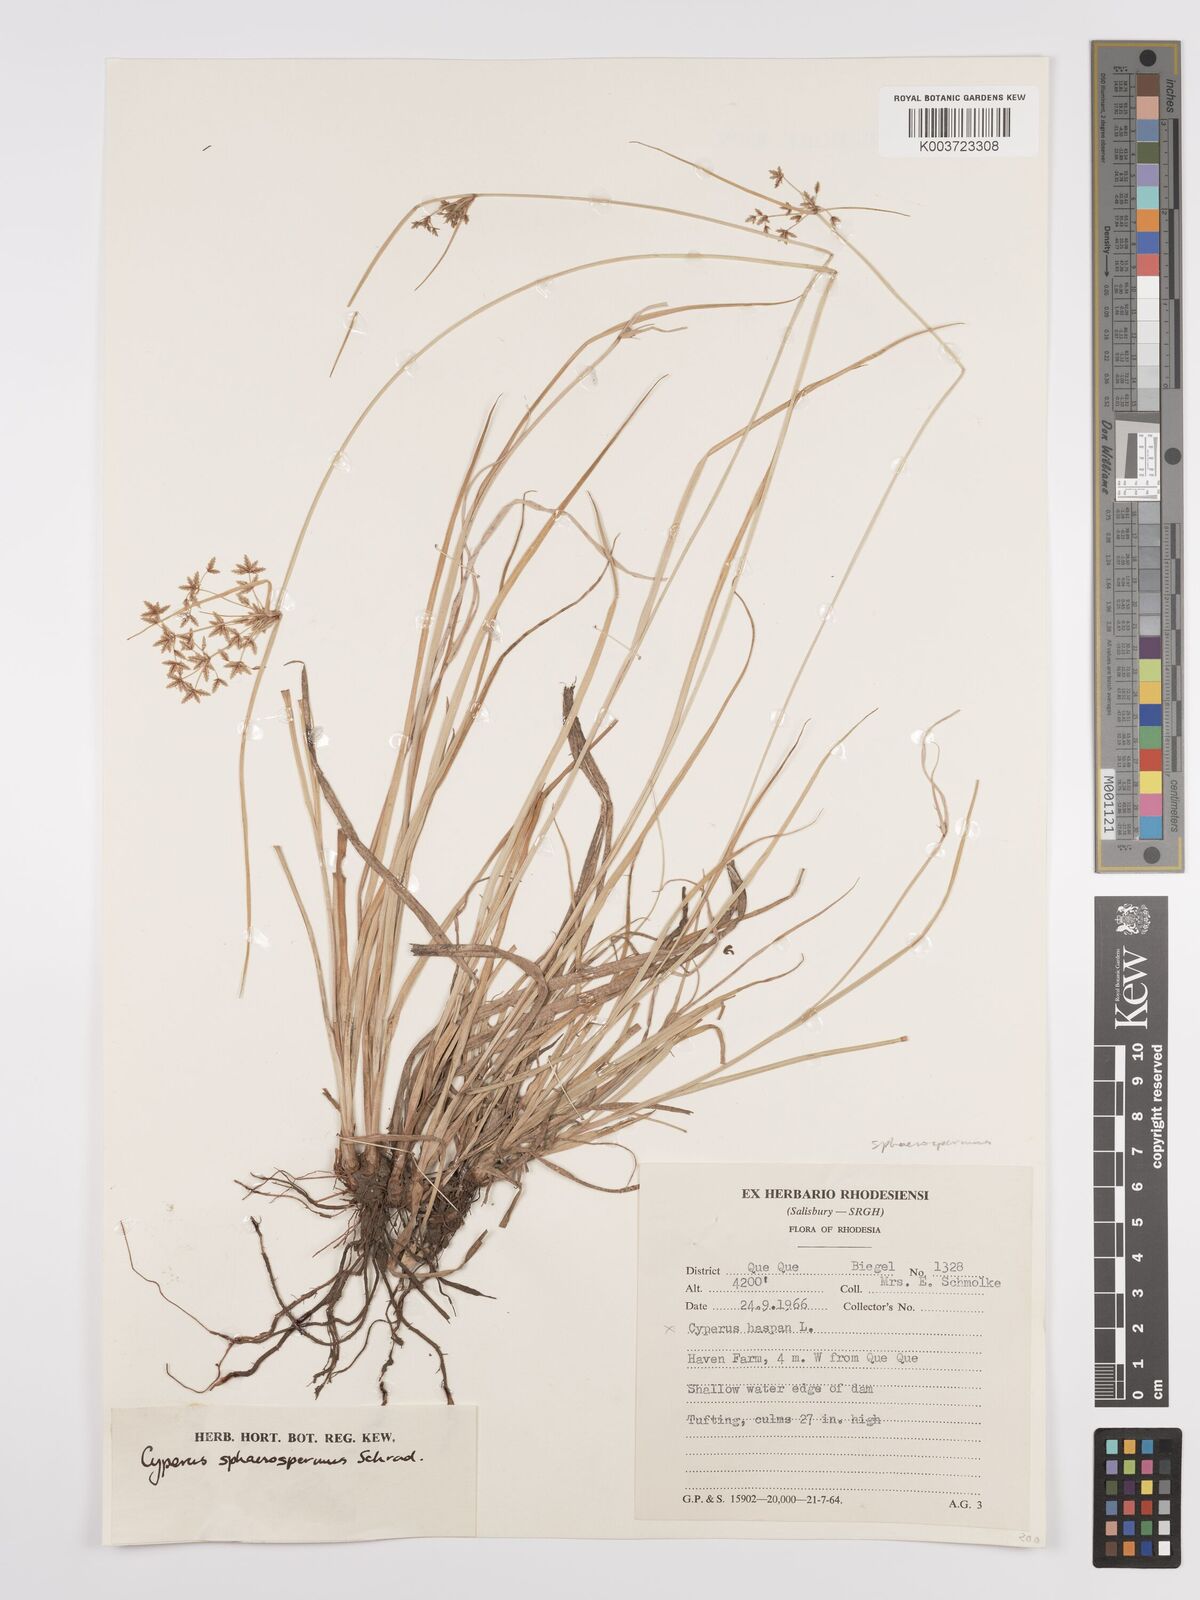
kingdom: Plantae
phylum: Tracheophyta
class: Liliopsida
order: Poales
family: Cyperaceae
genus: Cyperus
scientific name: Cyperus denudatus
